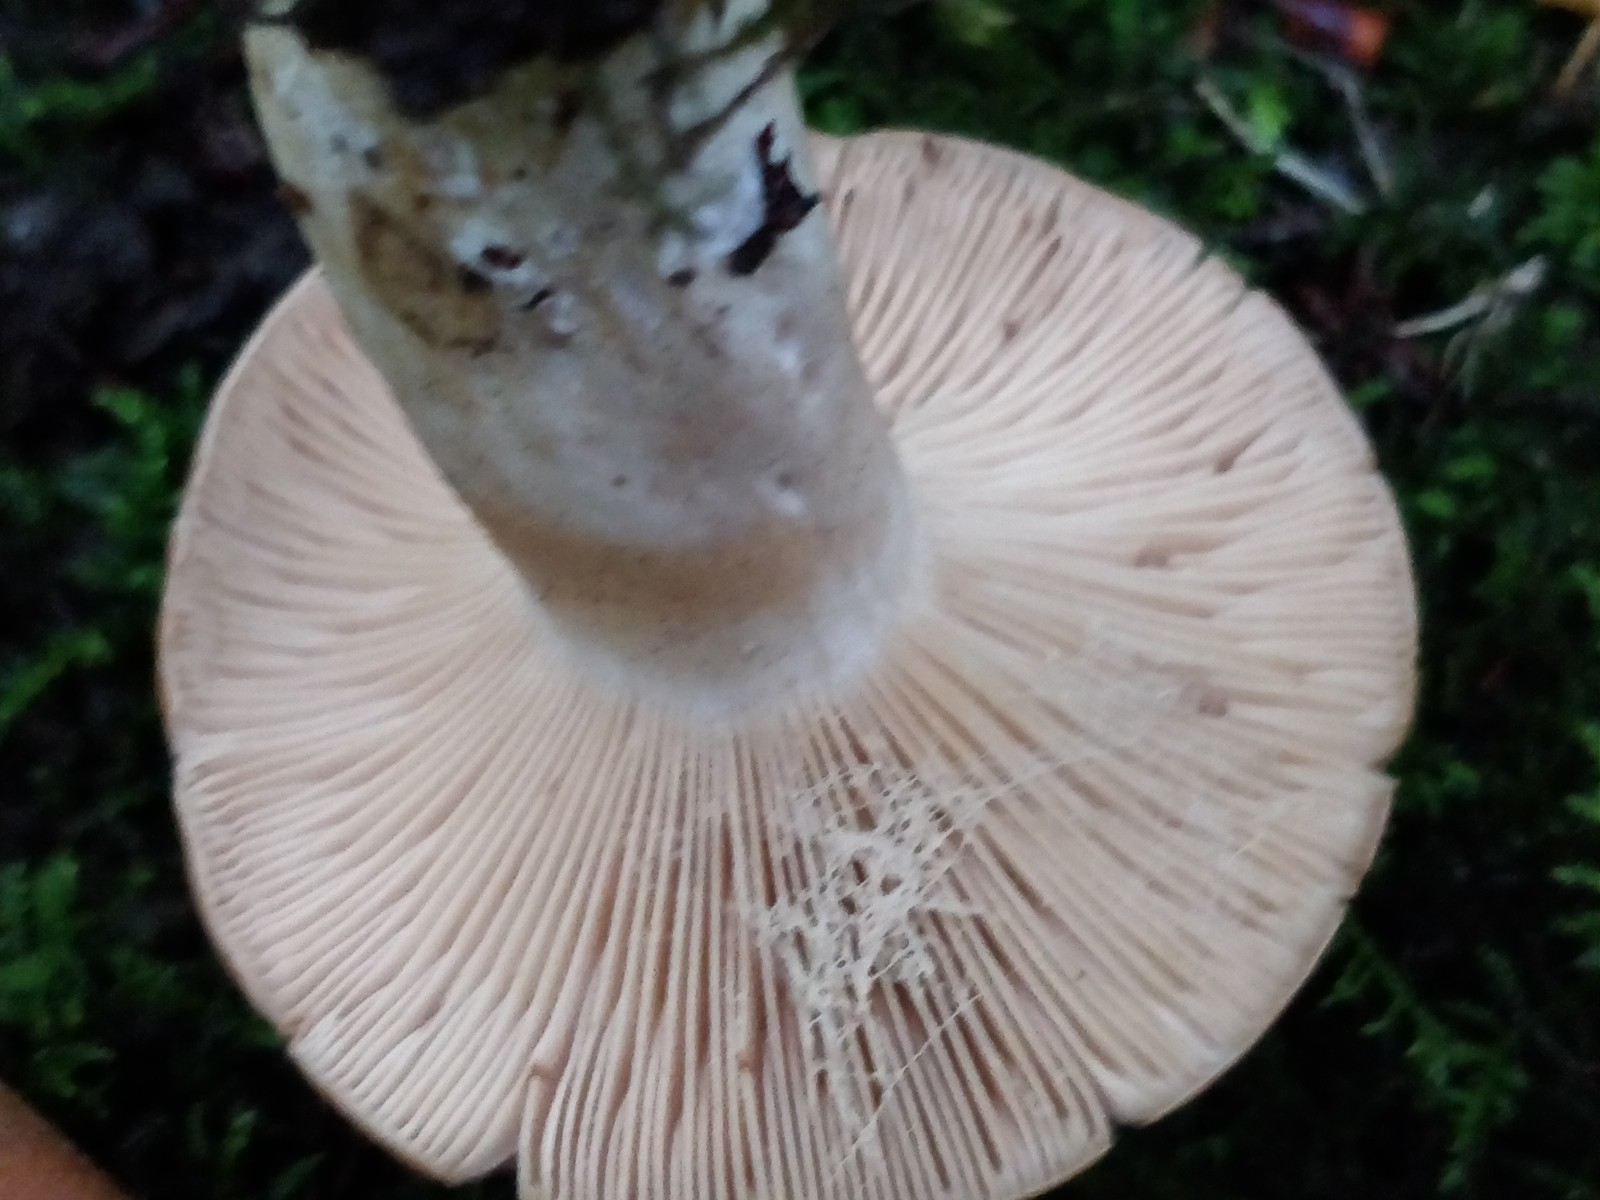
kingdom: Fungi
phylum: Basidiomycota
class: Agaricomycetes
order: Russulales
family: Russulaceae
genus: Lactarius
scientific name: Lactarius circellatus
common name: avnbøg-mælkehat
